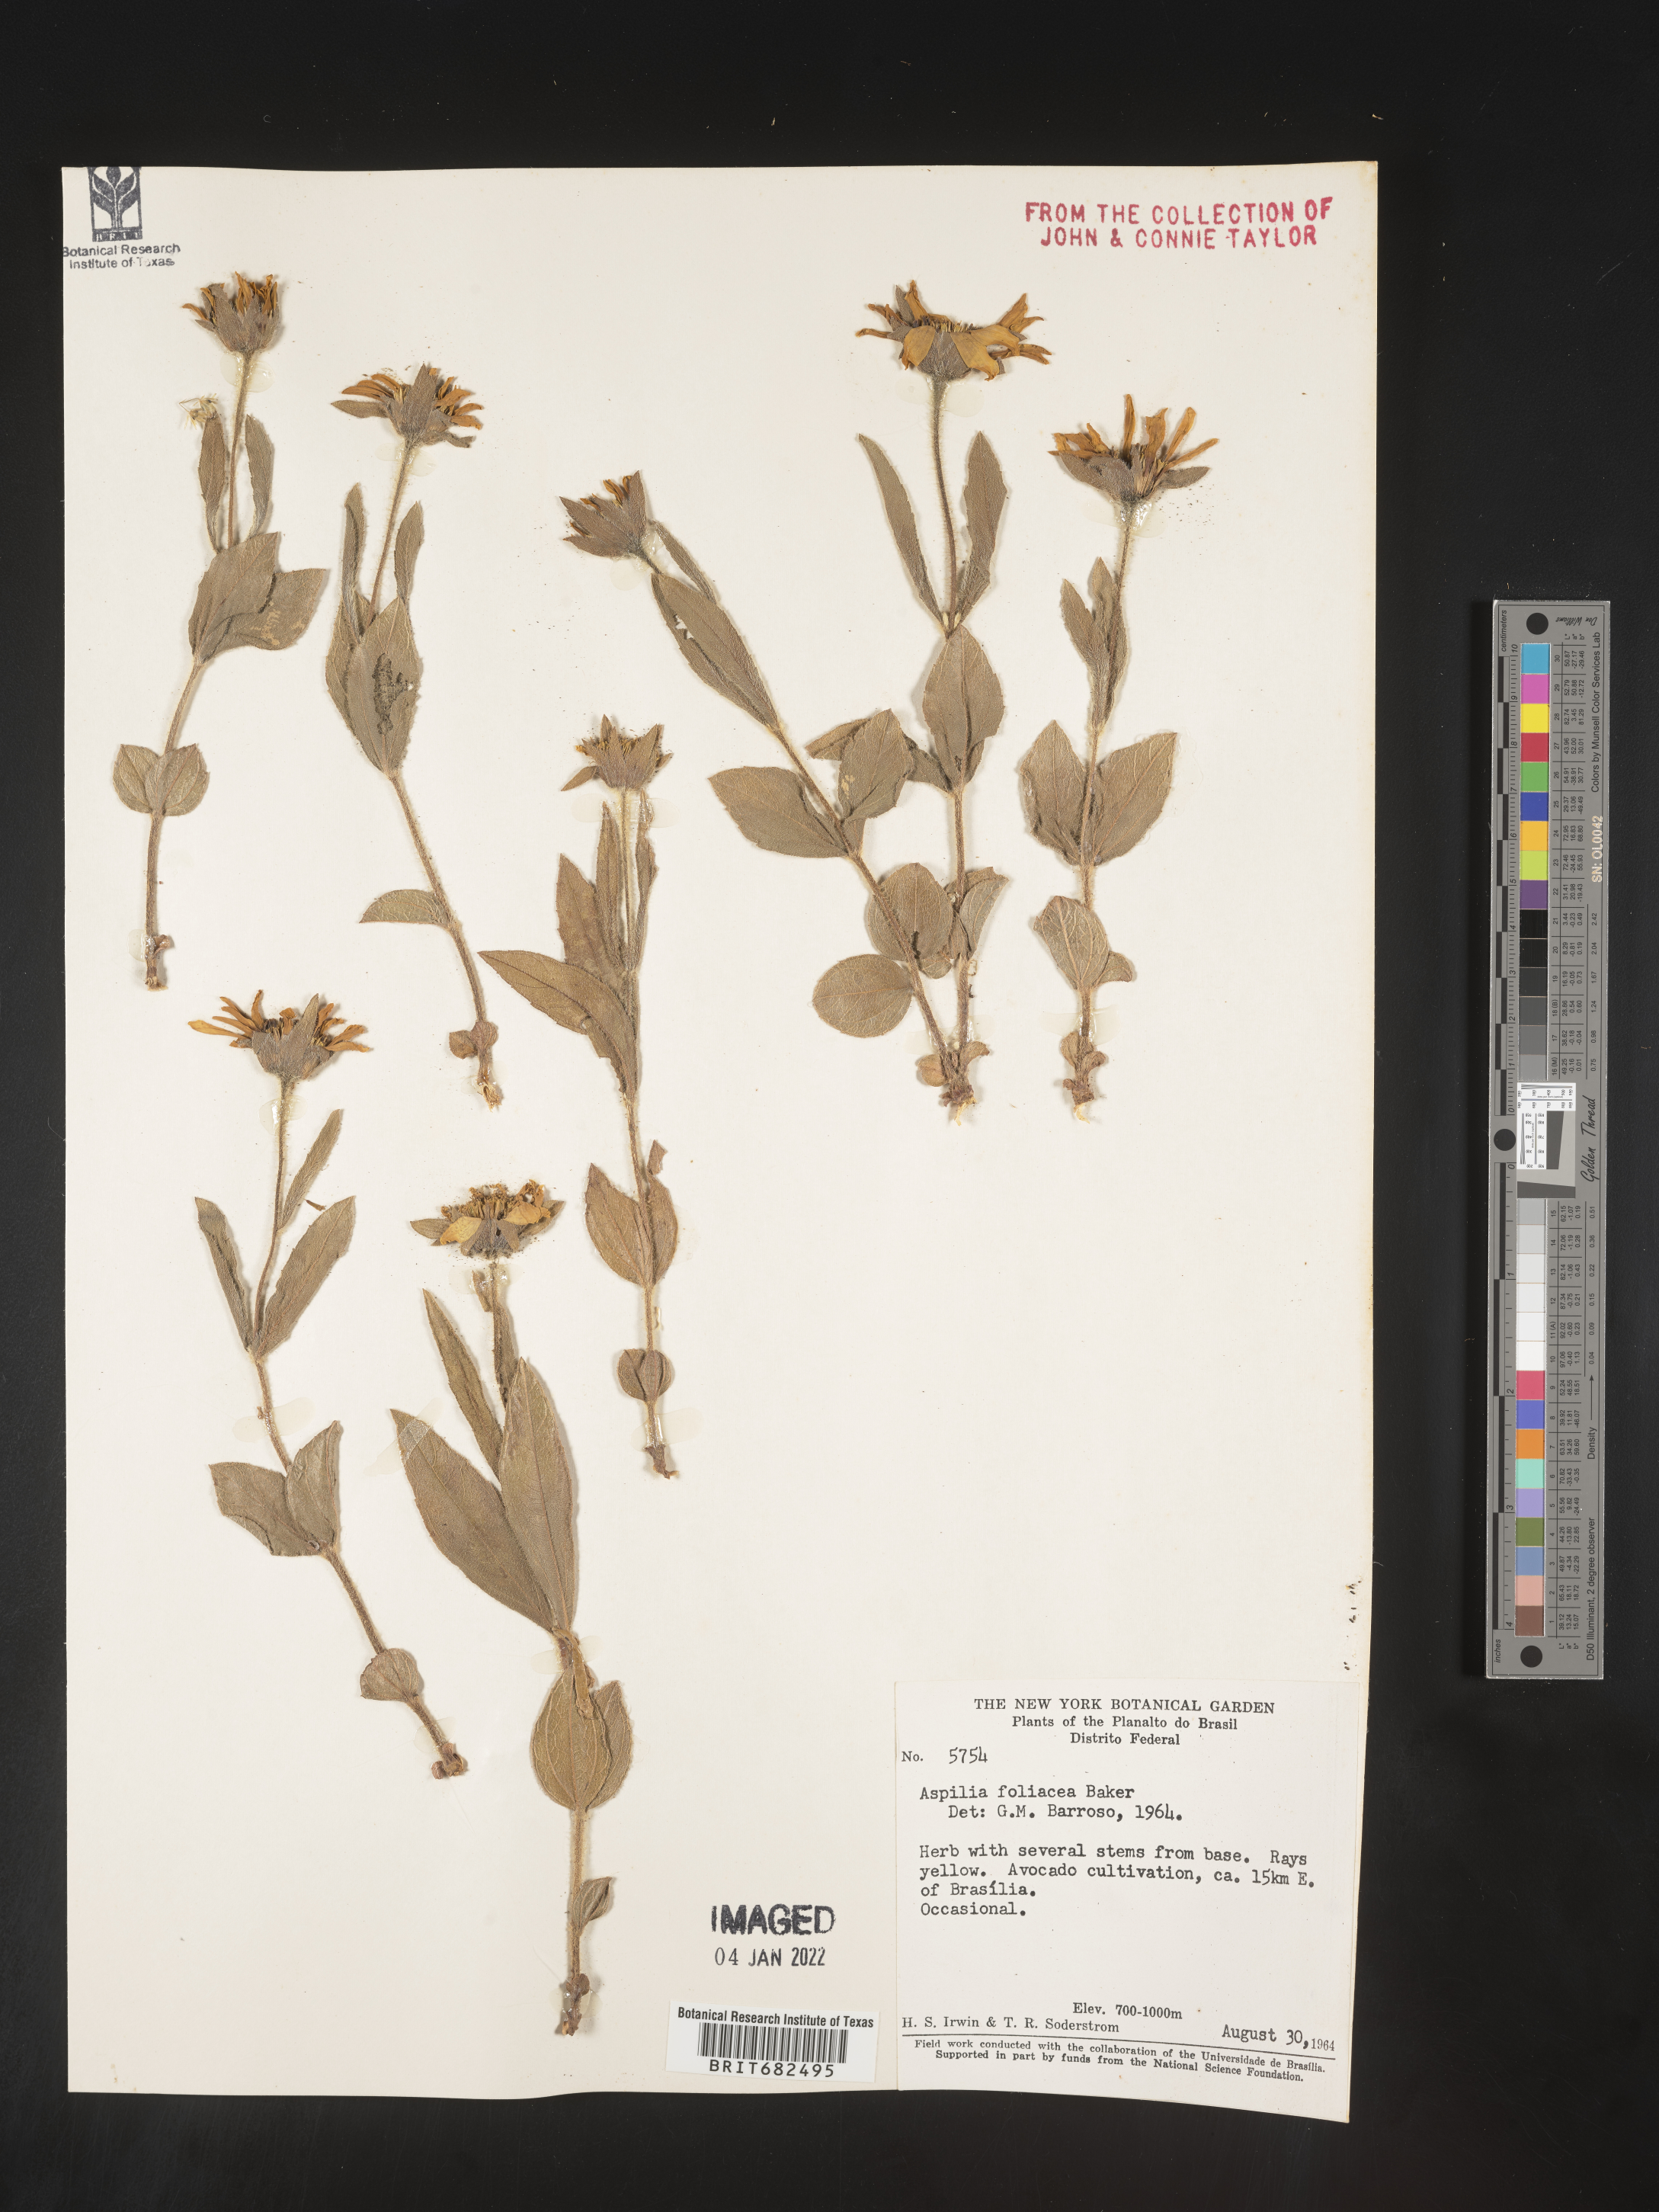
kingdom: Plantae
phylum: Tracheophyta
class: Magnoliopsida
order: Asterales
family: Asteraceae
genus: Aspilia
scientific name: Aspilia
